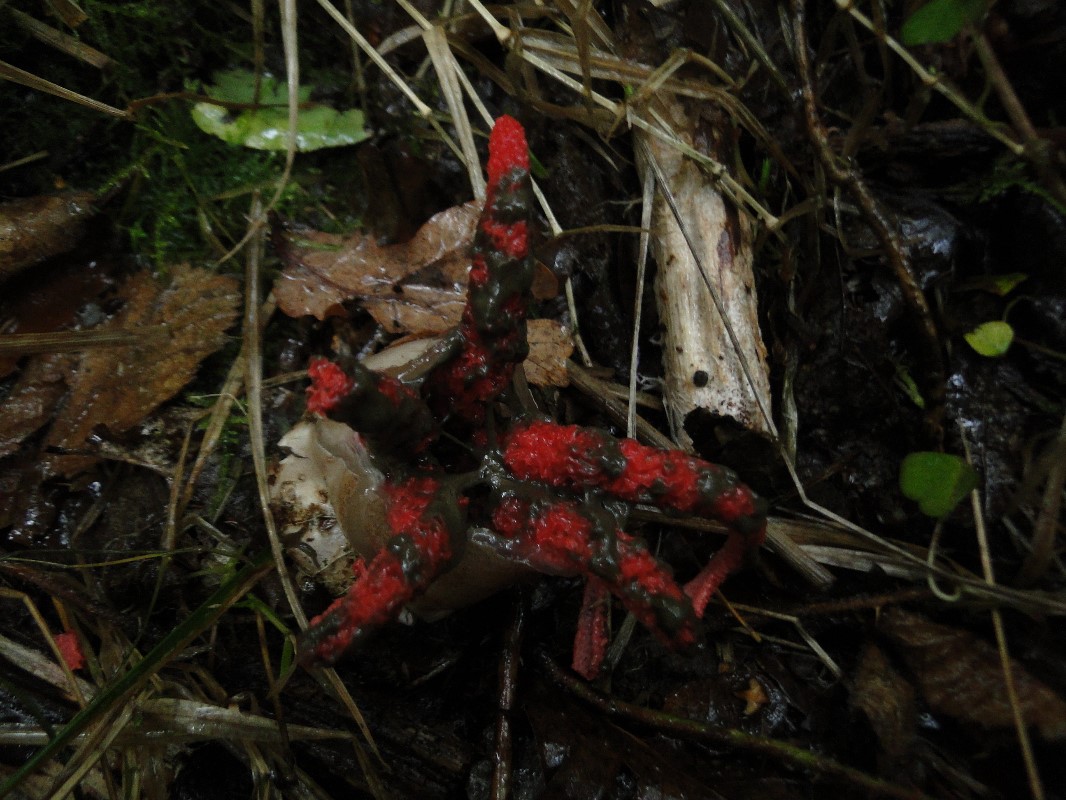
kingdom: Fungi
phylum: Basidiomycota
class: Agaricomycetes
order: Phallales
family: Phallaceae
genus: Clathrus
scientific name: Clathrus archeri
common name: blækspruttesvamp
